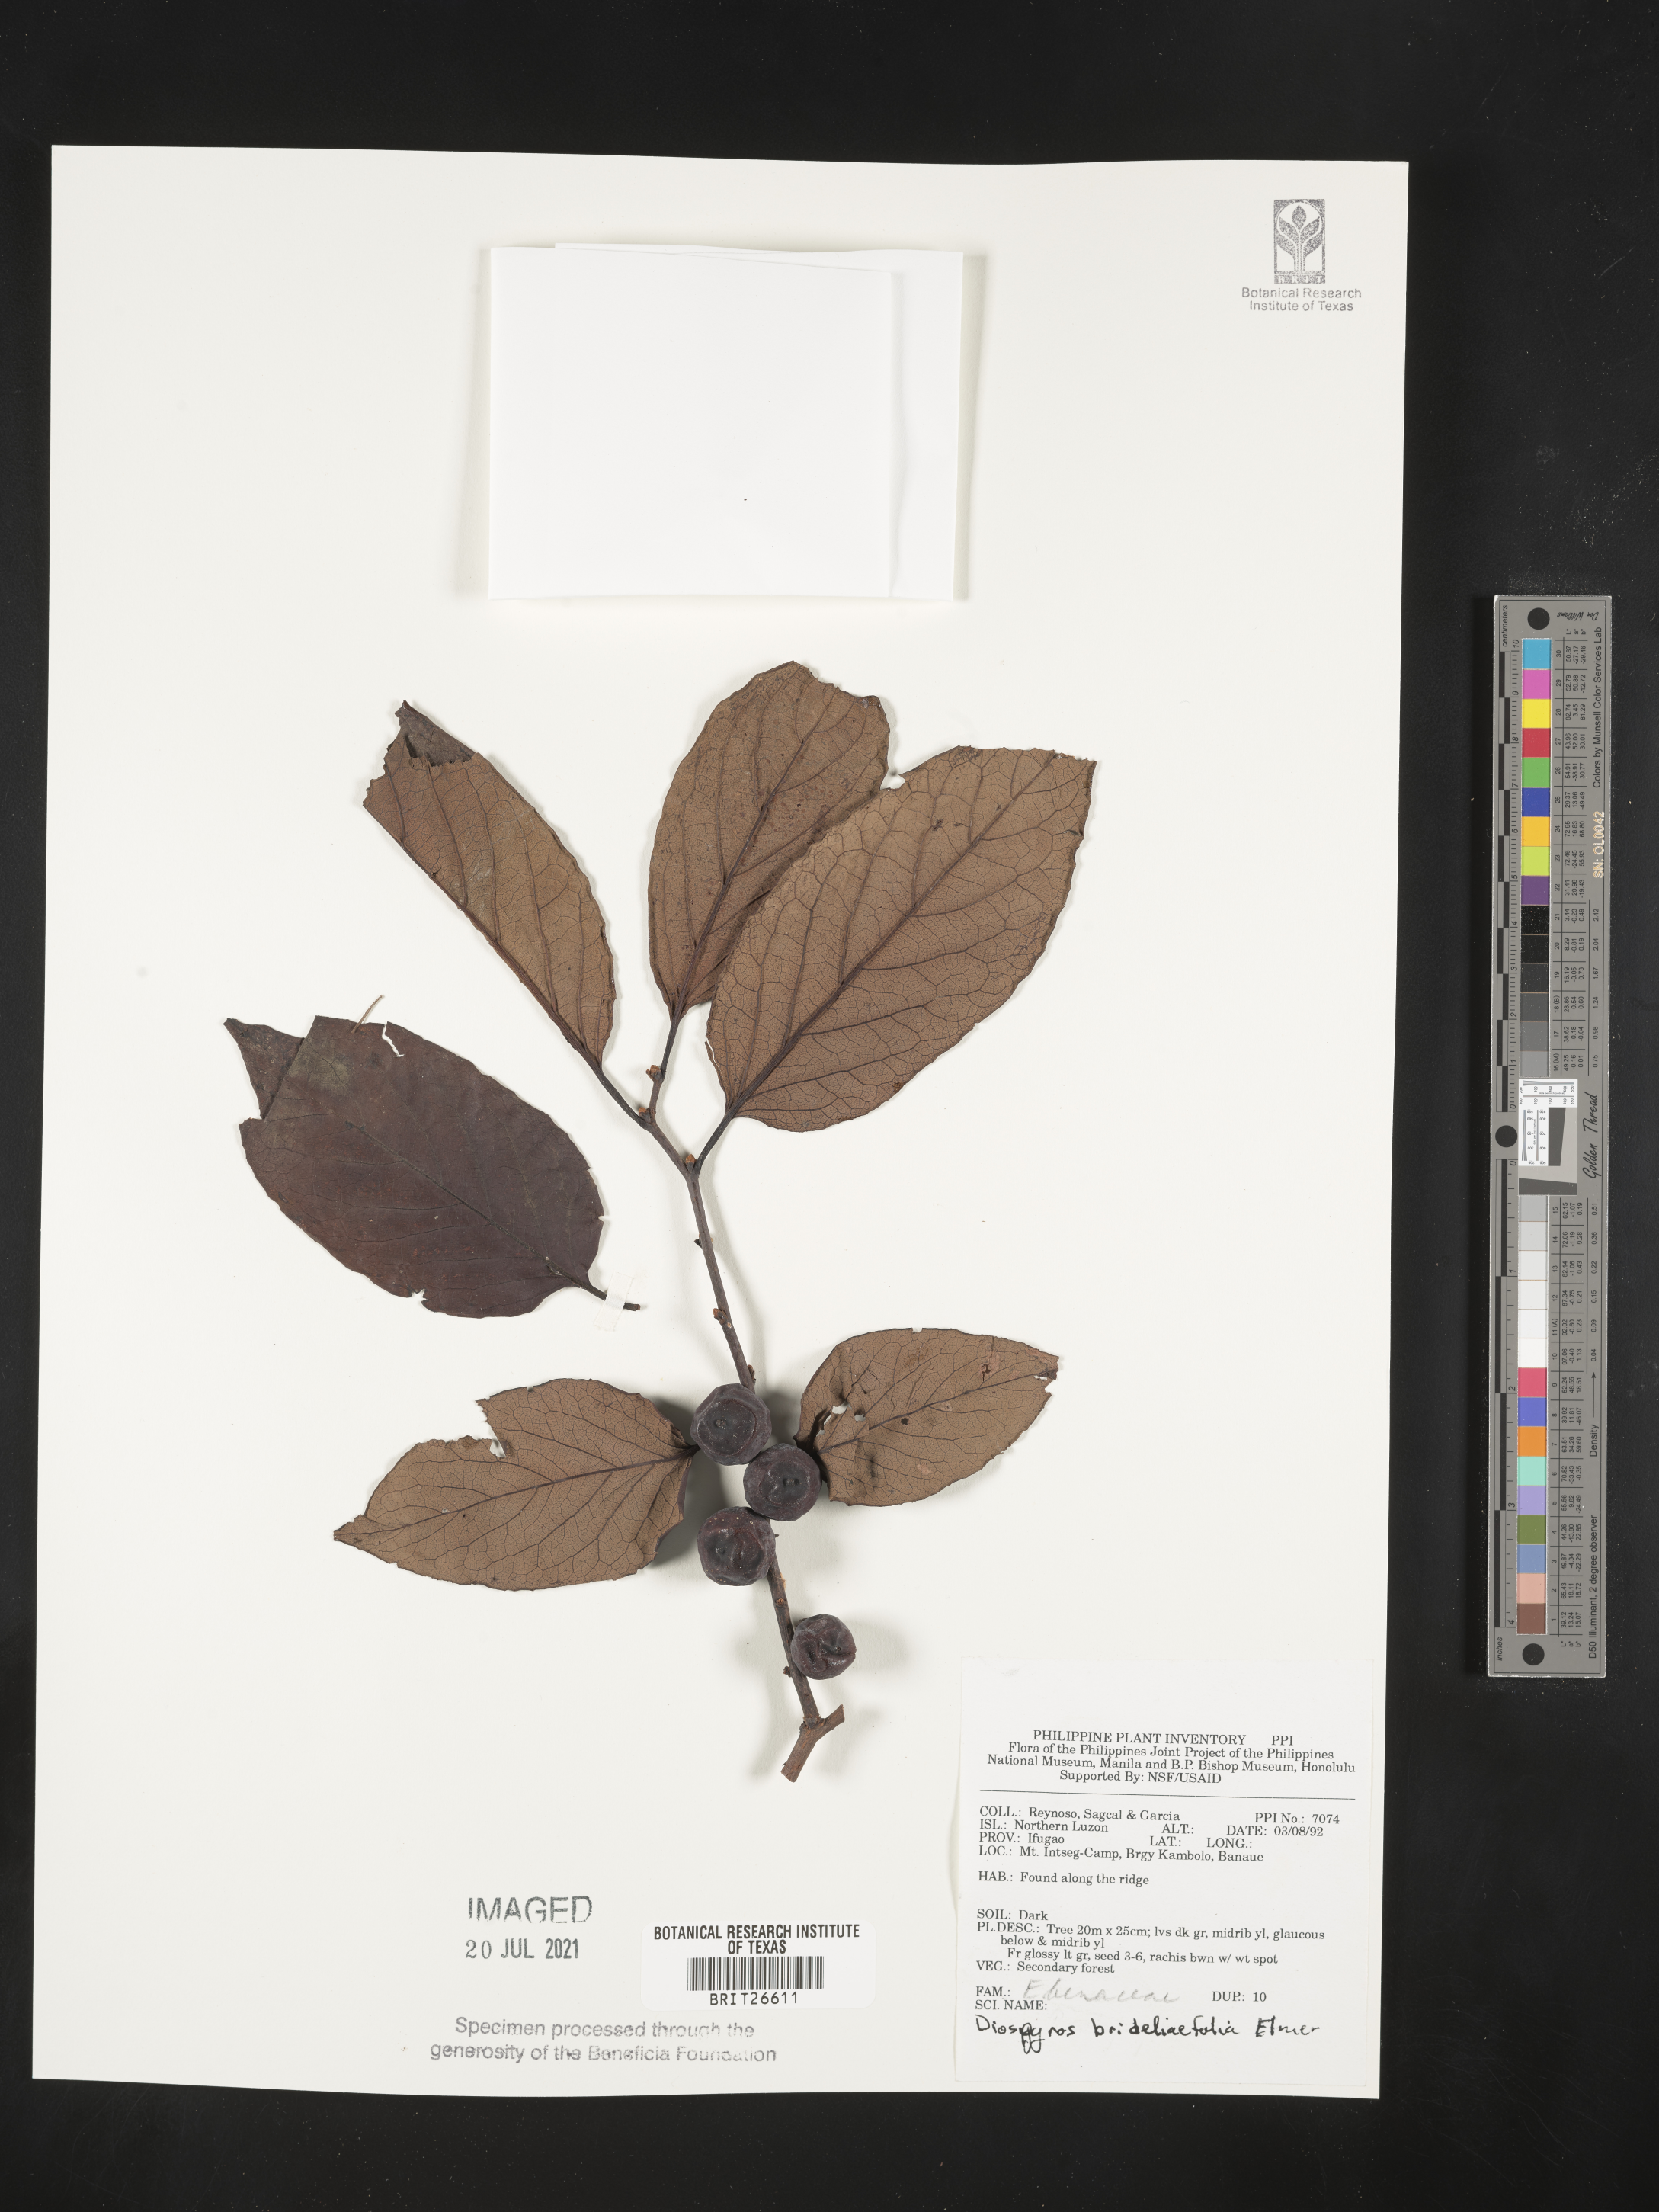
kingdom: Plantae
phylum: Tracheophyta
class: Magnoliopsida
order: Ericales
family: Ebenaceae
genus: Diospyros
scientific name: Diospyros brideliifolia
